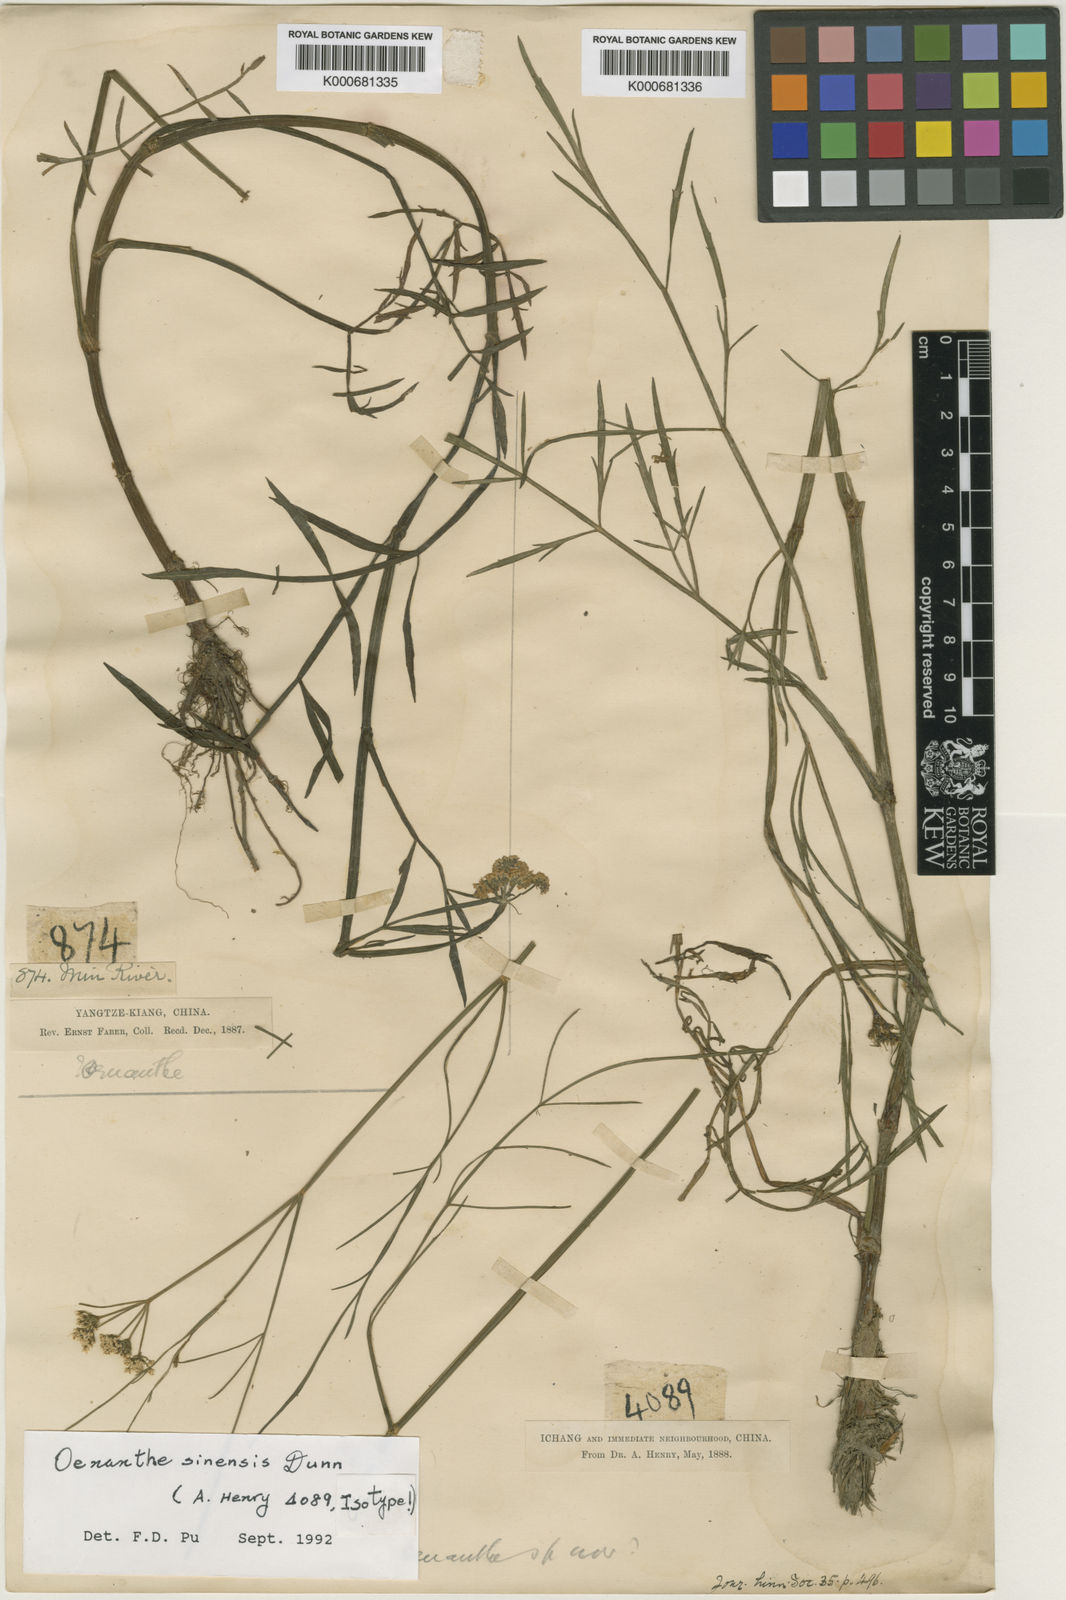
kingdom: Plantae
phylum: Tracheophyta
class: Magnoliopsida
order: Apiales
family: Apiaceae
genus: Oenanthe
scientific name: Oenanthe linearis
